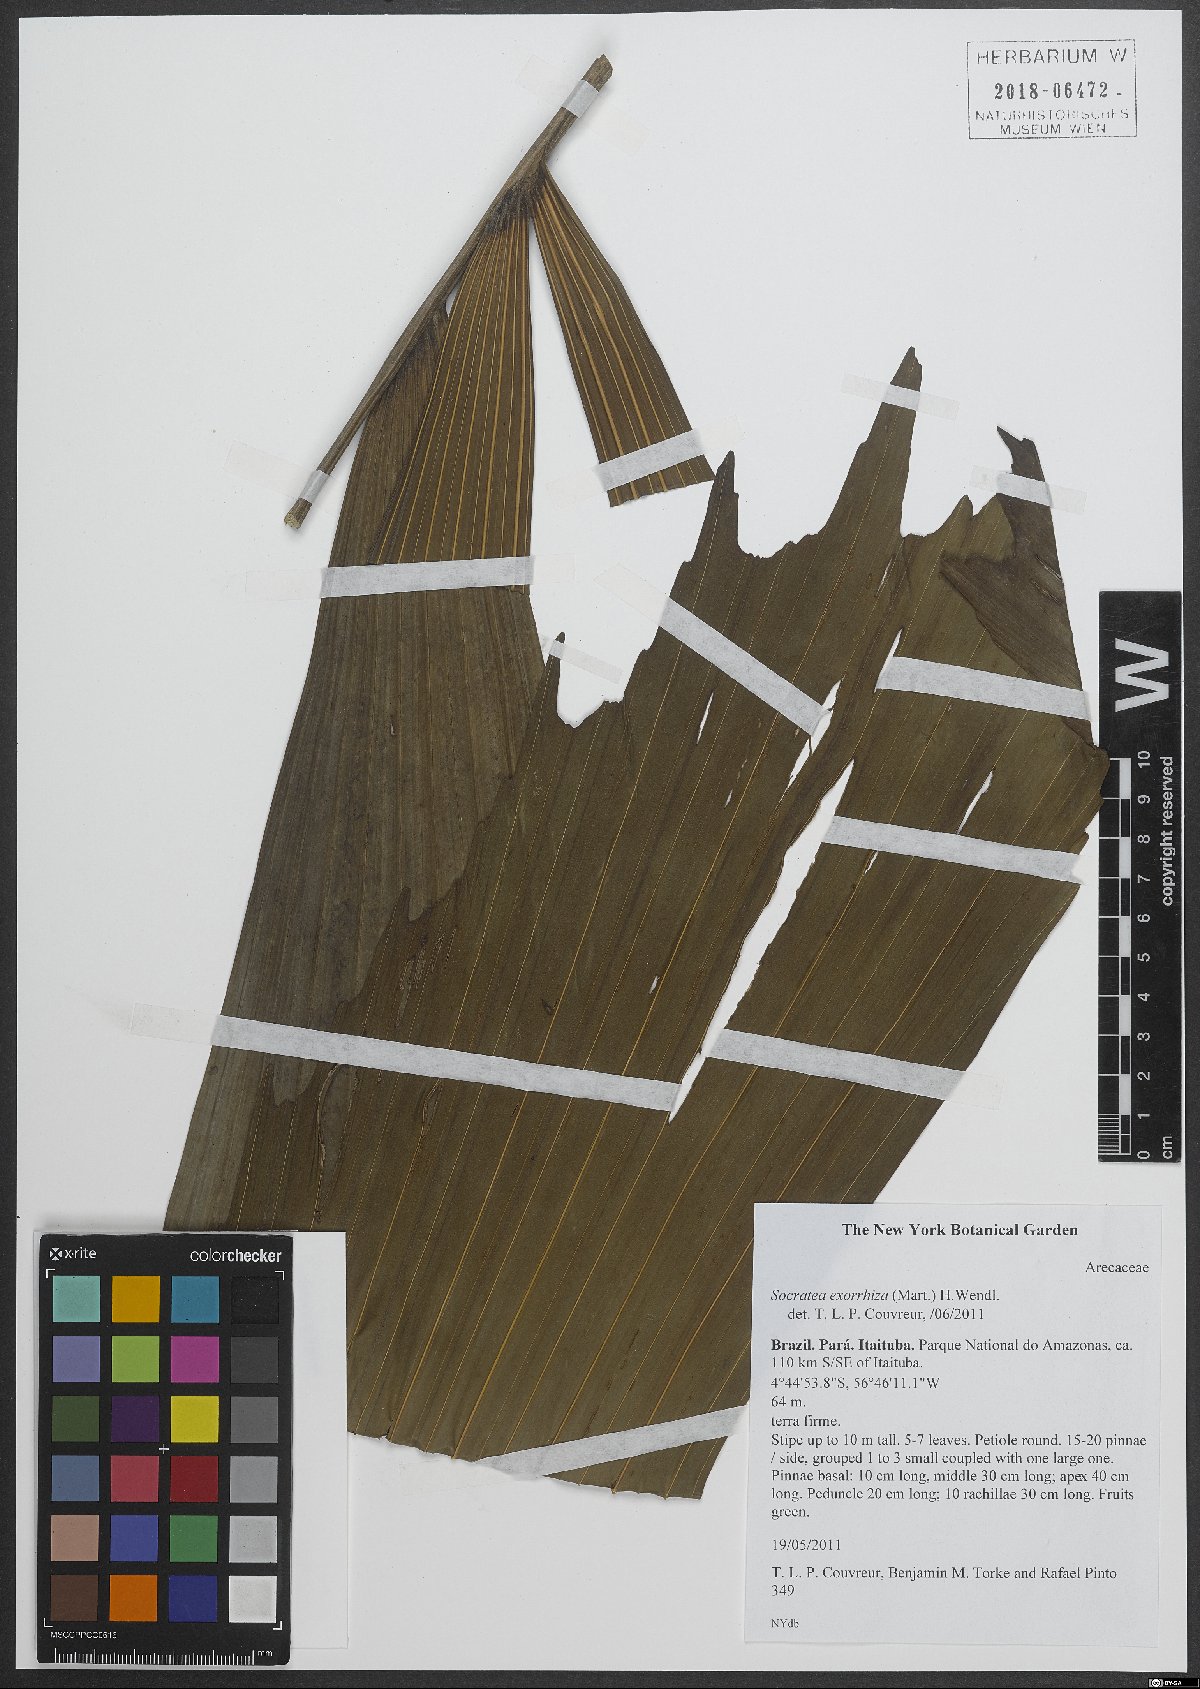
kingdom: Plantae
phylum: Tracheophyta
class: Liliopsida
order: Arecales
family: Arecaceae
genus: Socratea
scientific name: Socratea exorrhiza
